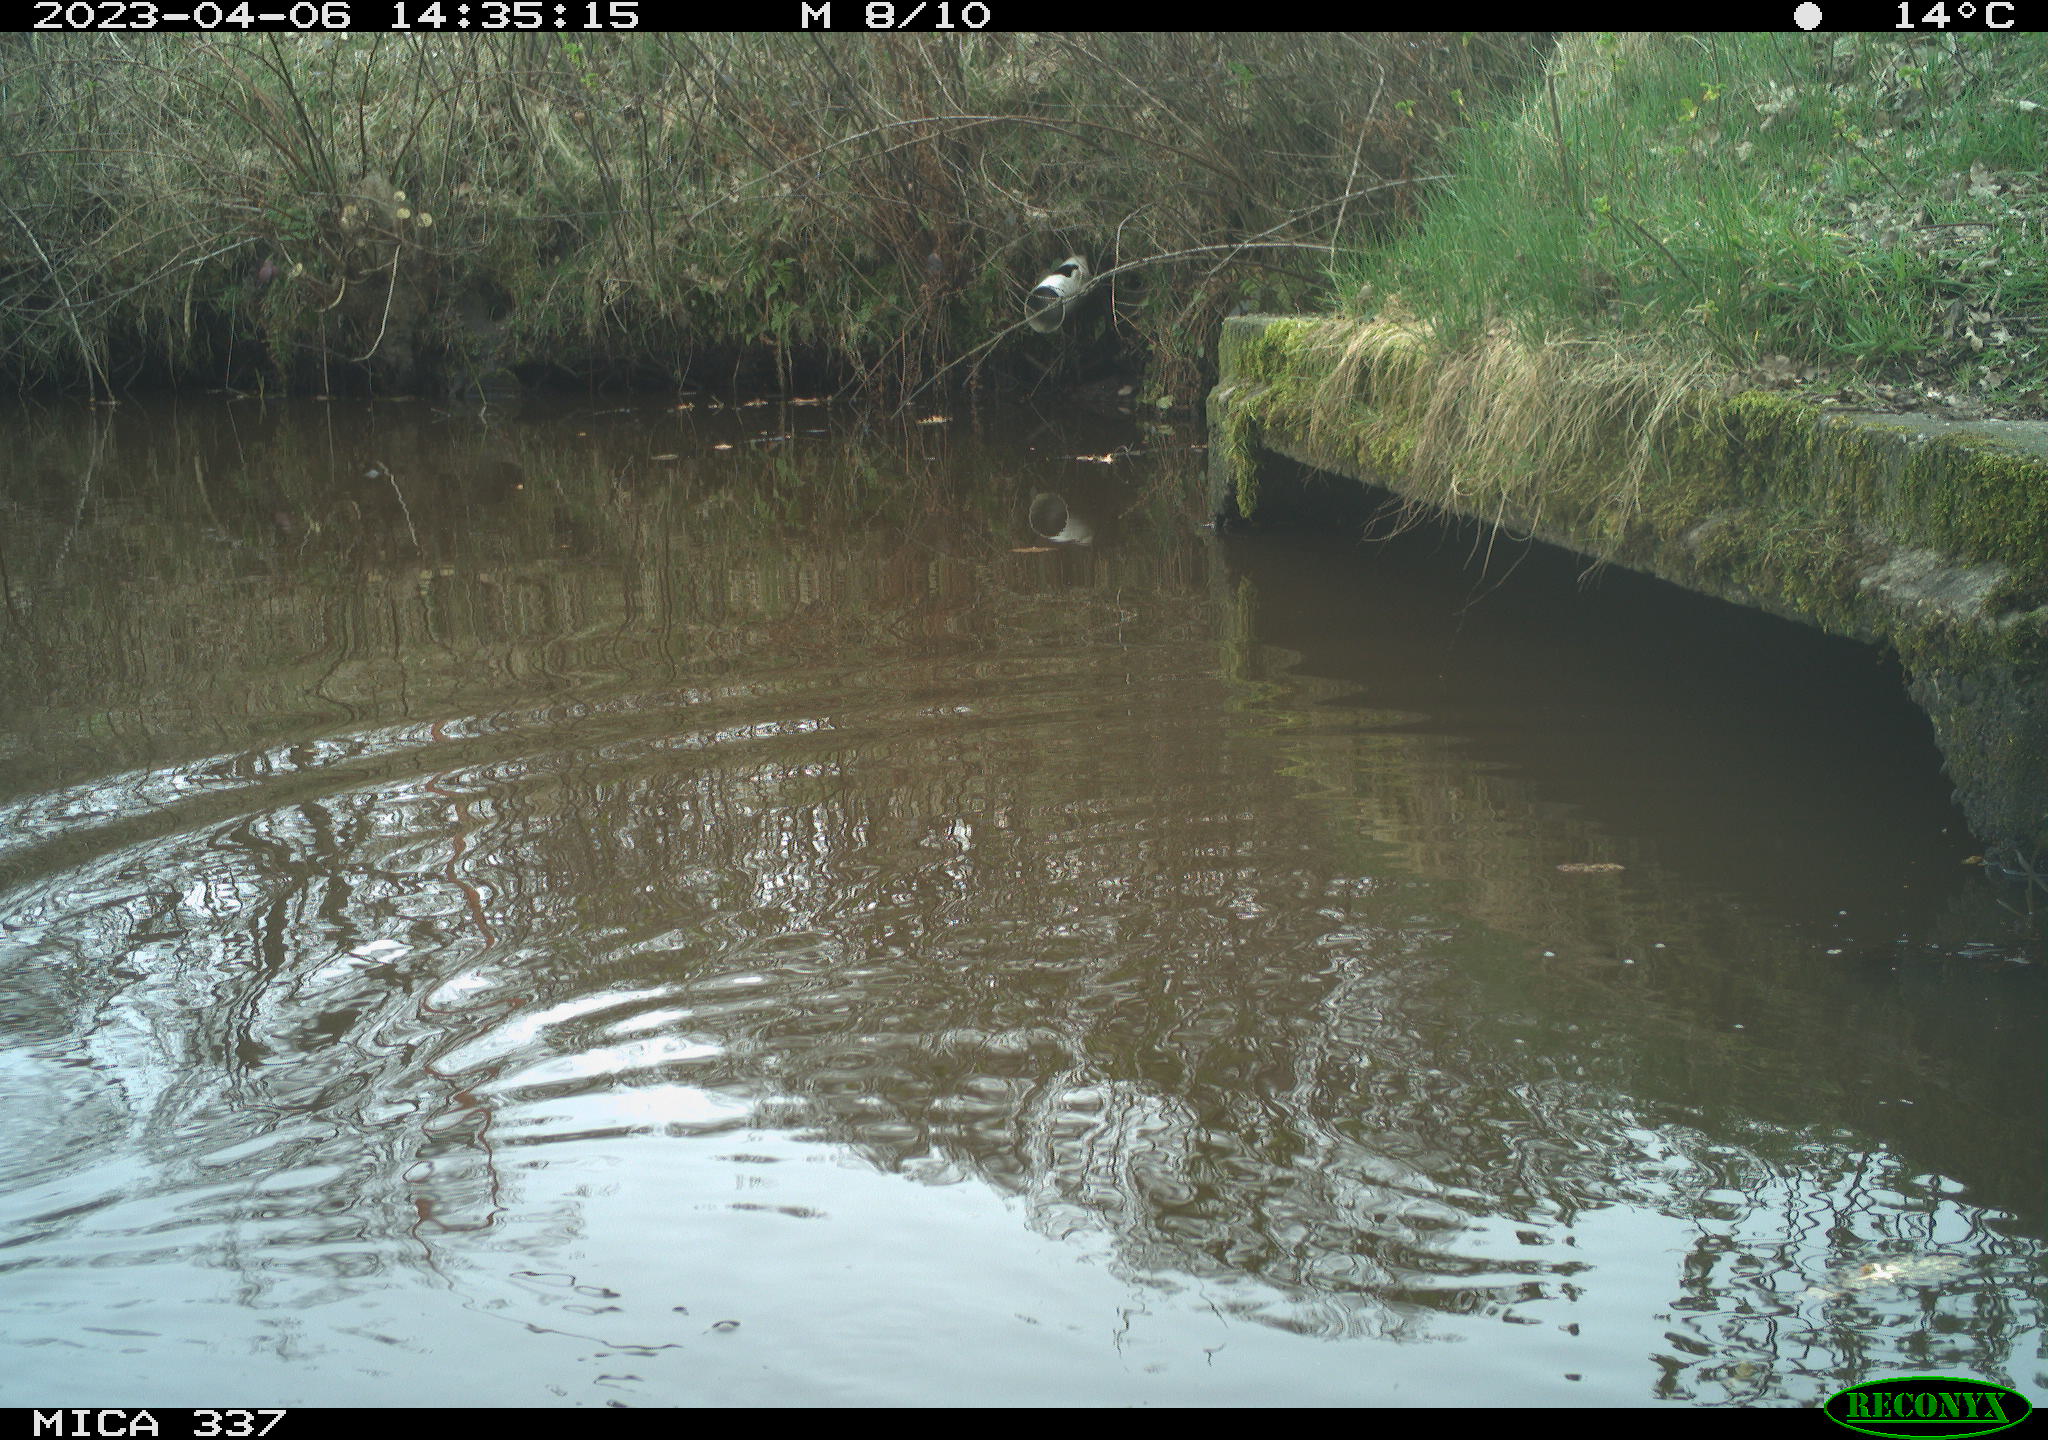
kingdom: Animalia
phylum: Chordata
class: Aves
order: Gruiformes
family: Rallidae
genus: Gallinula
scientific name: Gallinula chloropus
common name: Common moorhen
